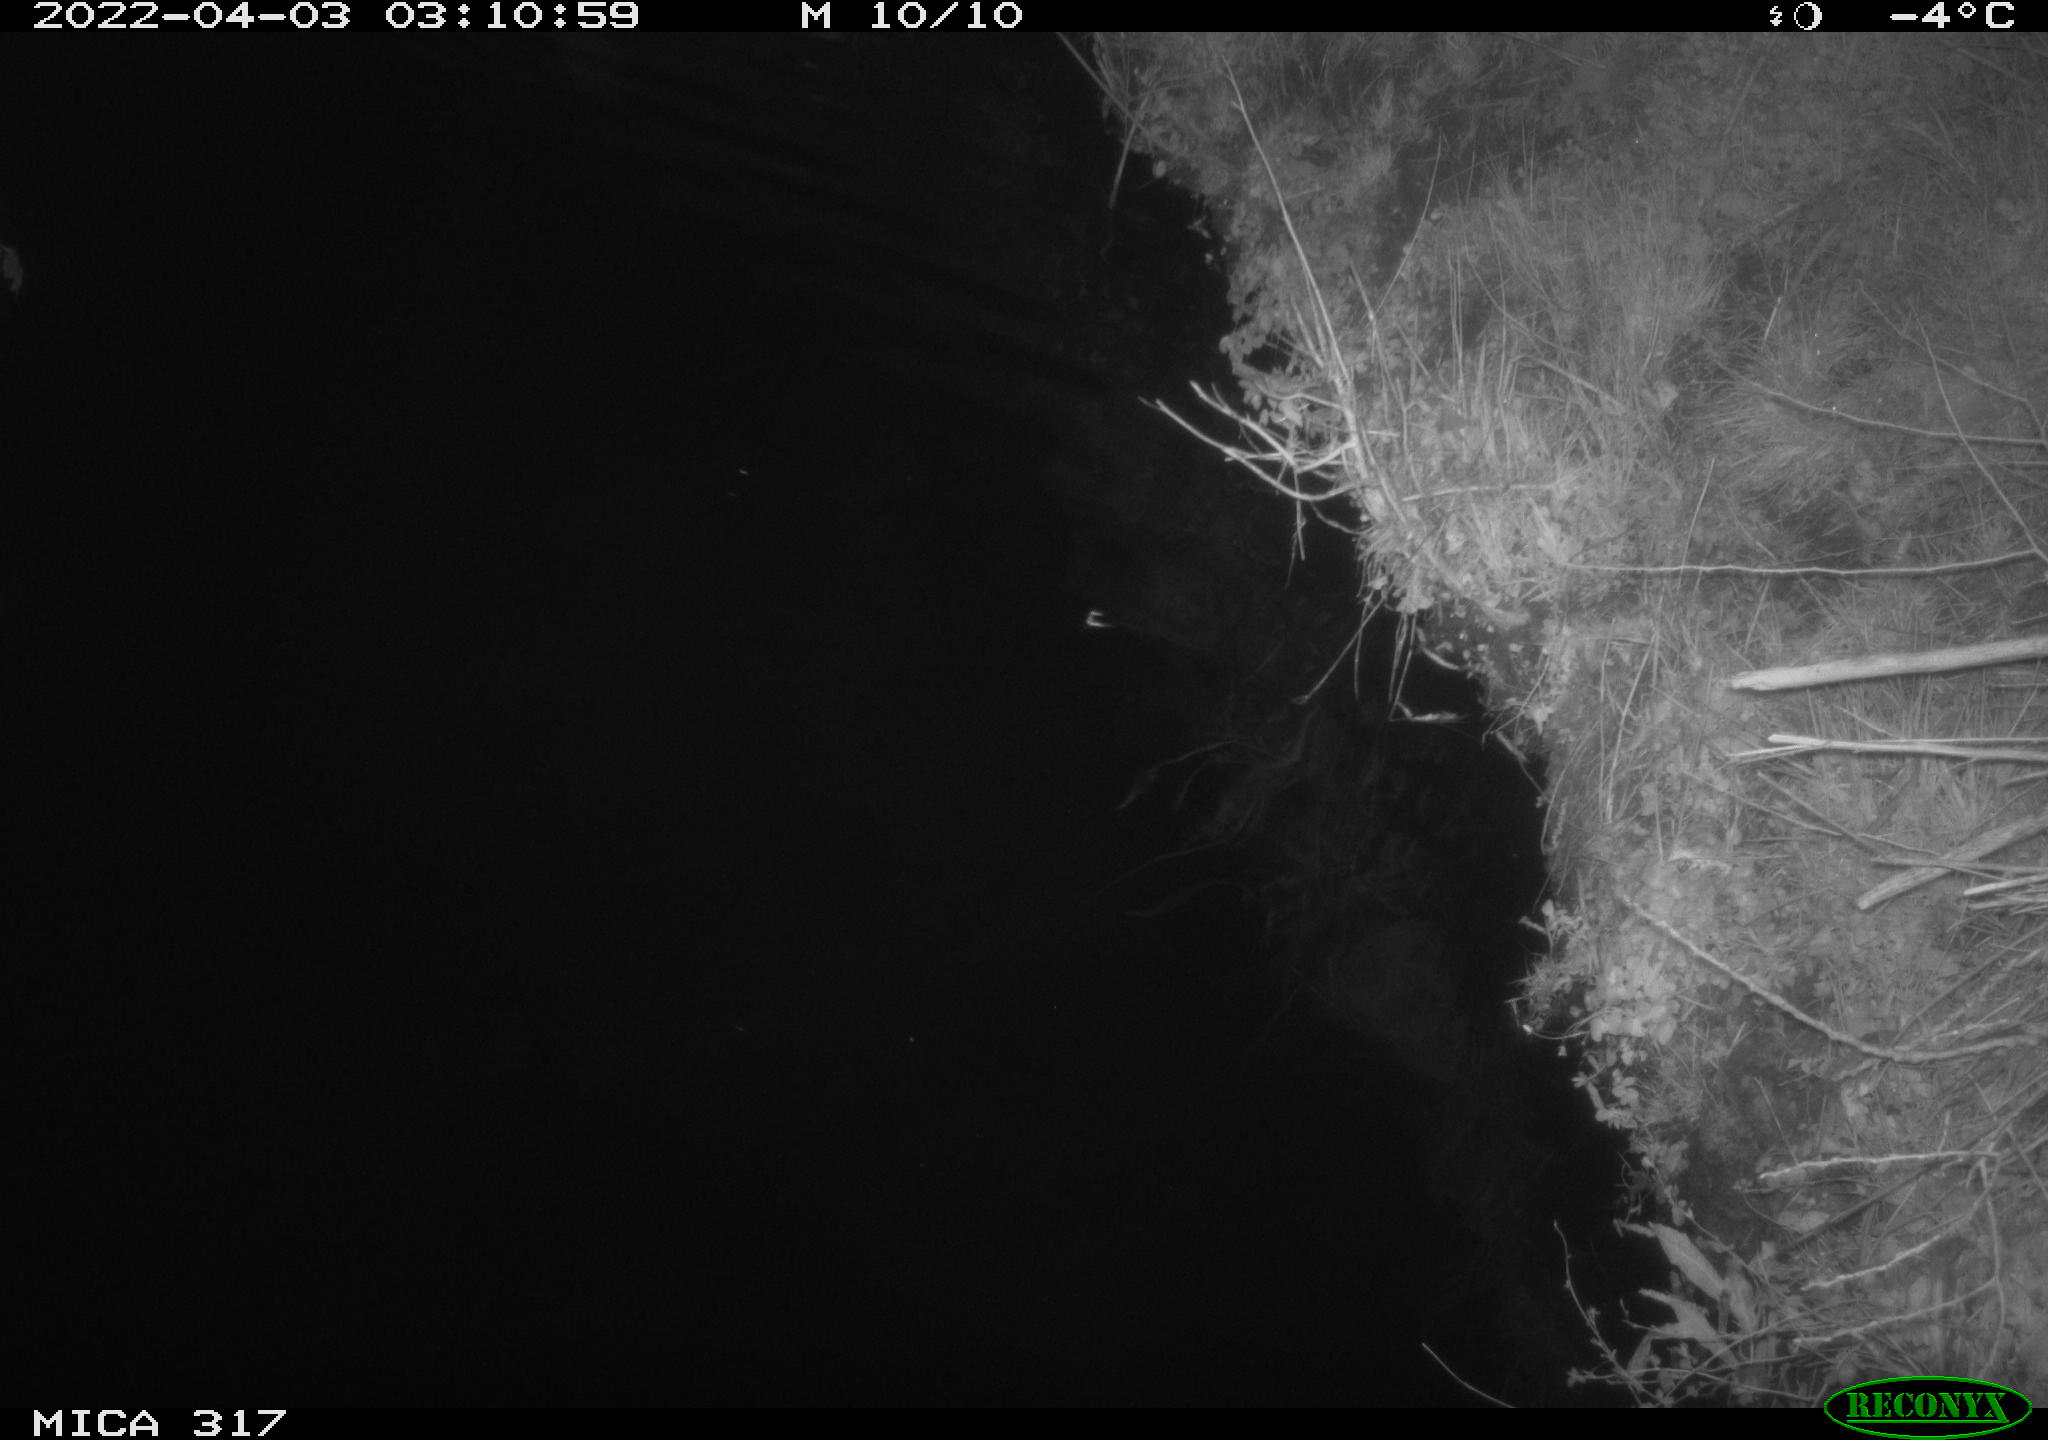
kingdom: Animalia
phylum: Chordata
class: Aves
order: Anseriformes
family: Anatidae
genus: Anas
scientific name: Anas platyrhynchos
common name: Mallard
